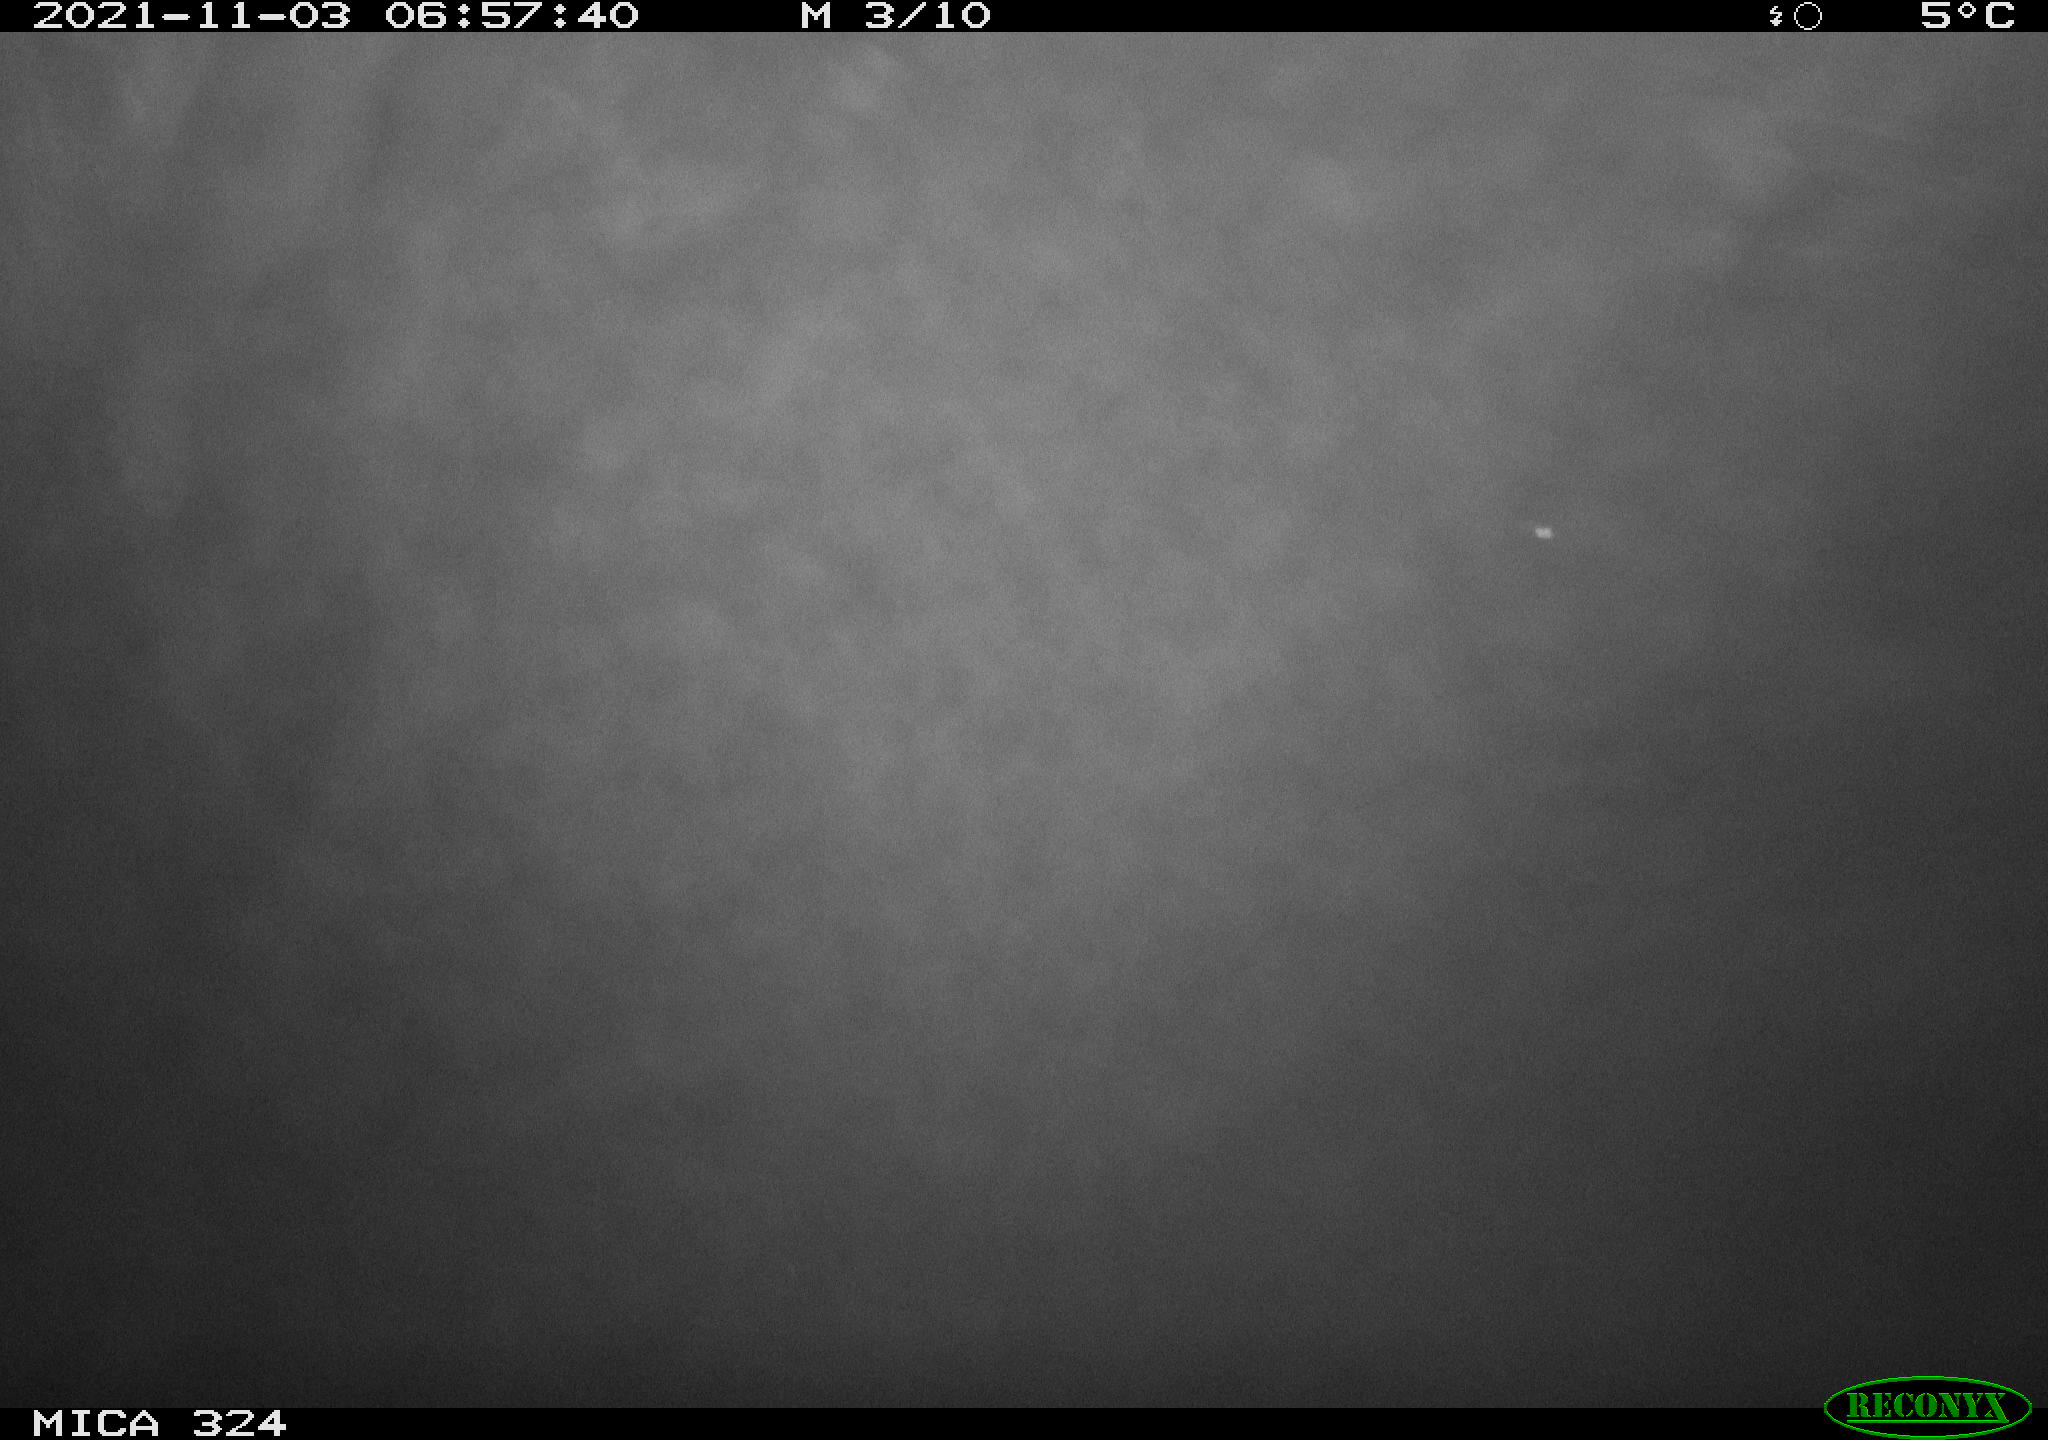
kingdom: Animalia
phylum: Chordata
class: Mammalia
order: Rodentia
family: Cricetidae
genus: Ondatra
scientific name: Ondatra zibethicus
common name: Muskrat
